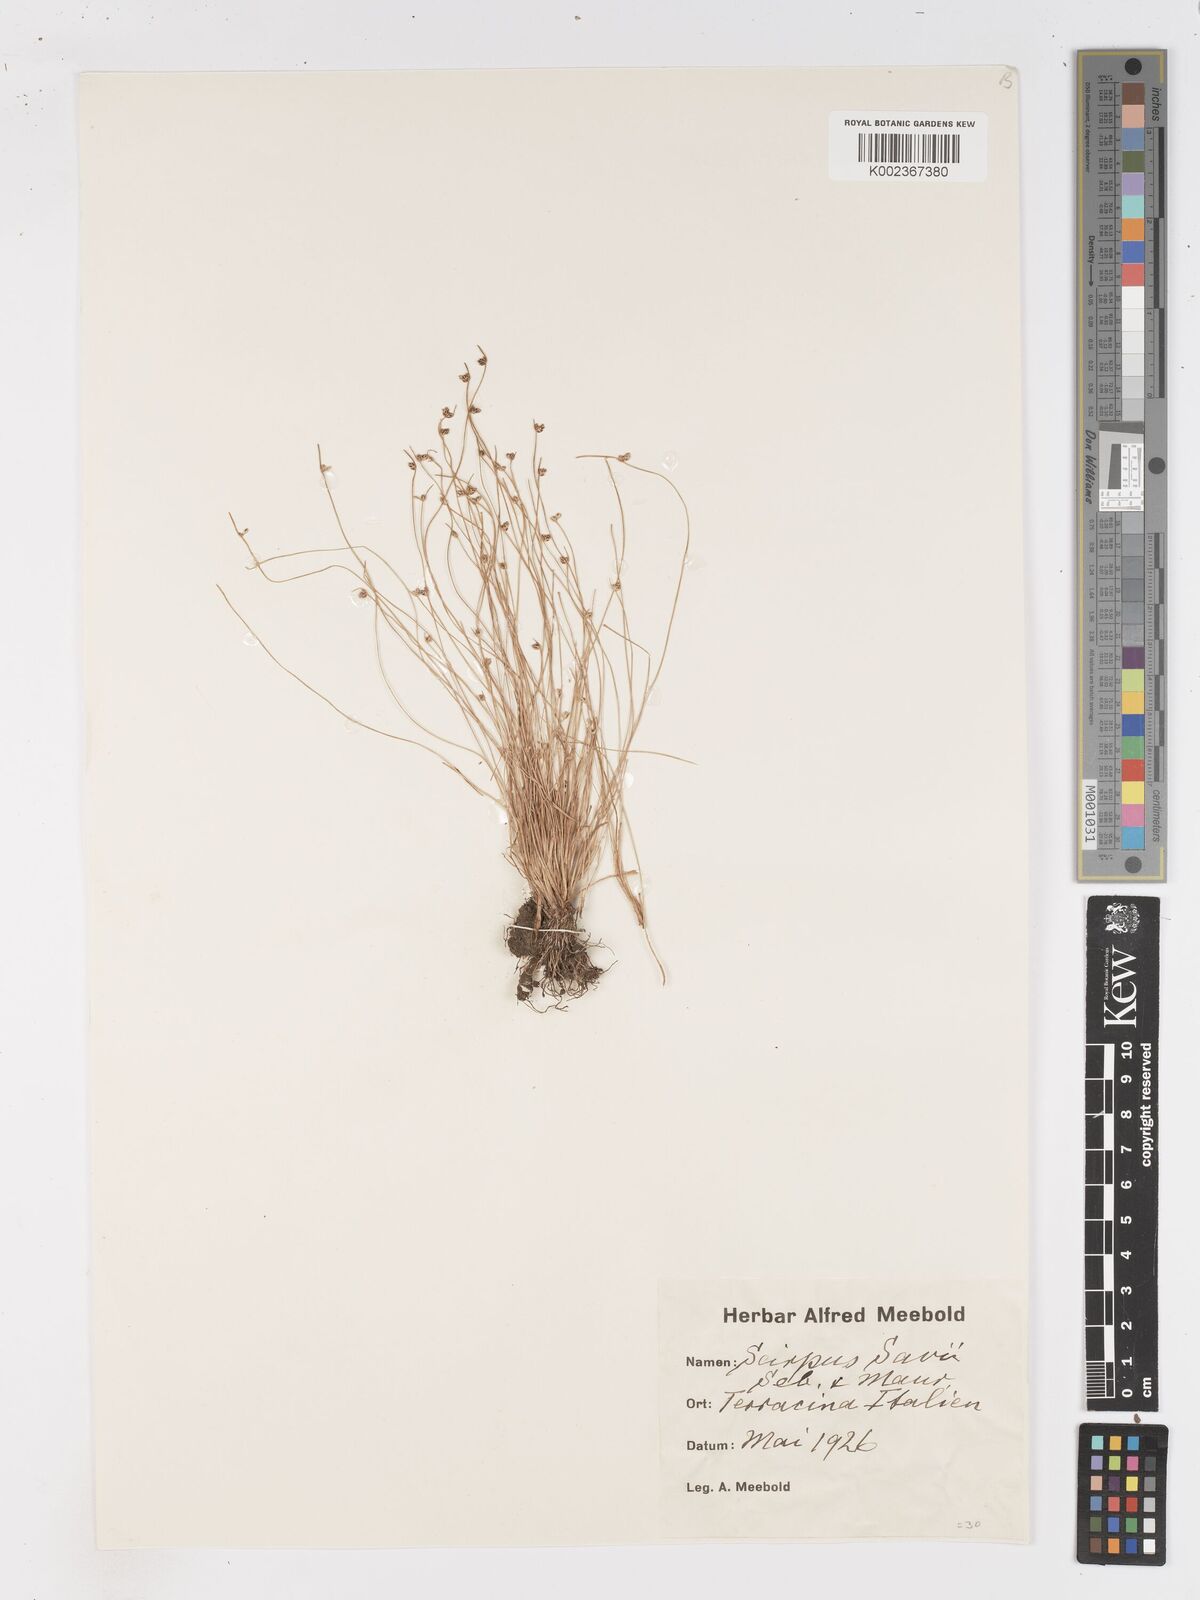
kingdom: Plantae
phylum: Tracheophyta
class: Liliopsida
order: Poales
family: Cyperaceae
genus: Isolepis
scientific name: Isolepis cernua
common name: Slender club-rush
